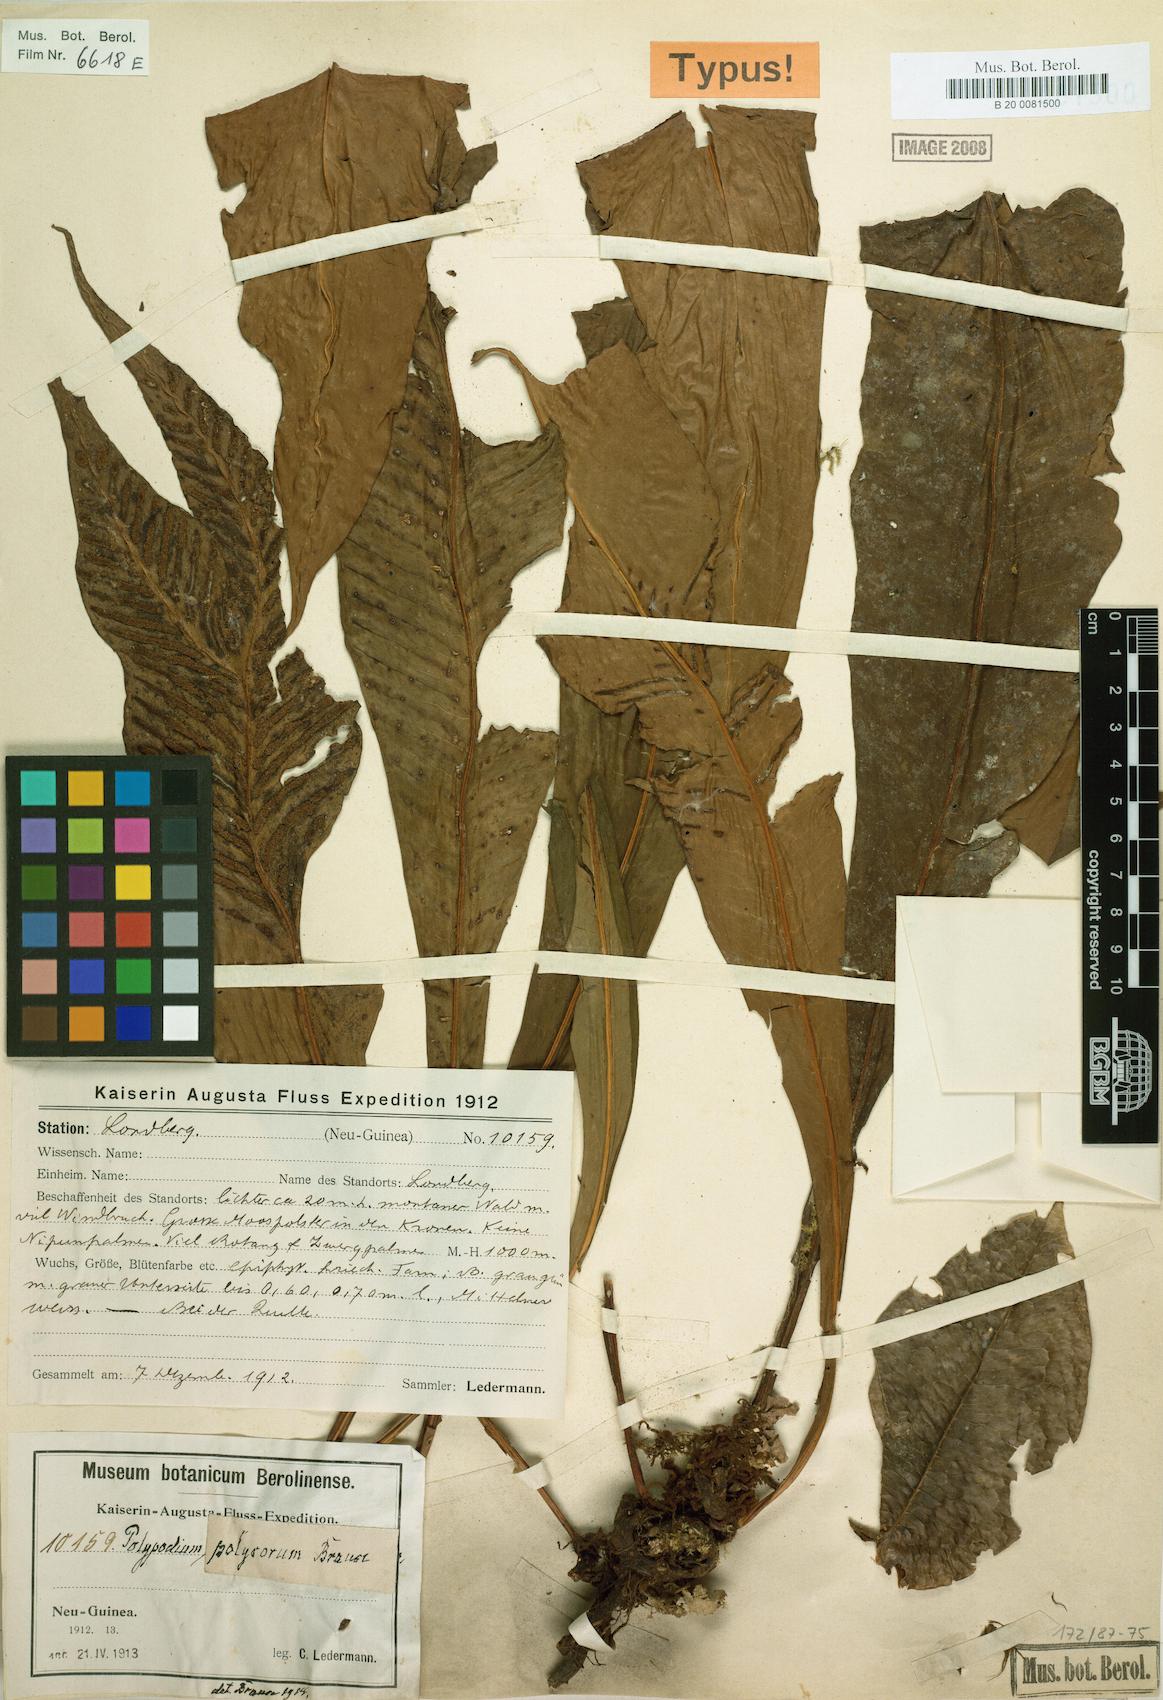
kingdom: Plantae
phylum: Tracheophyta
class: Polypodiopsida
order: Polypodiales
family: Polypodiaceae
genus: Leptochilus
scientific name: Leptochilus macrophyllus
